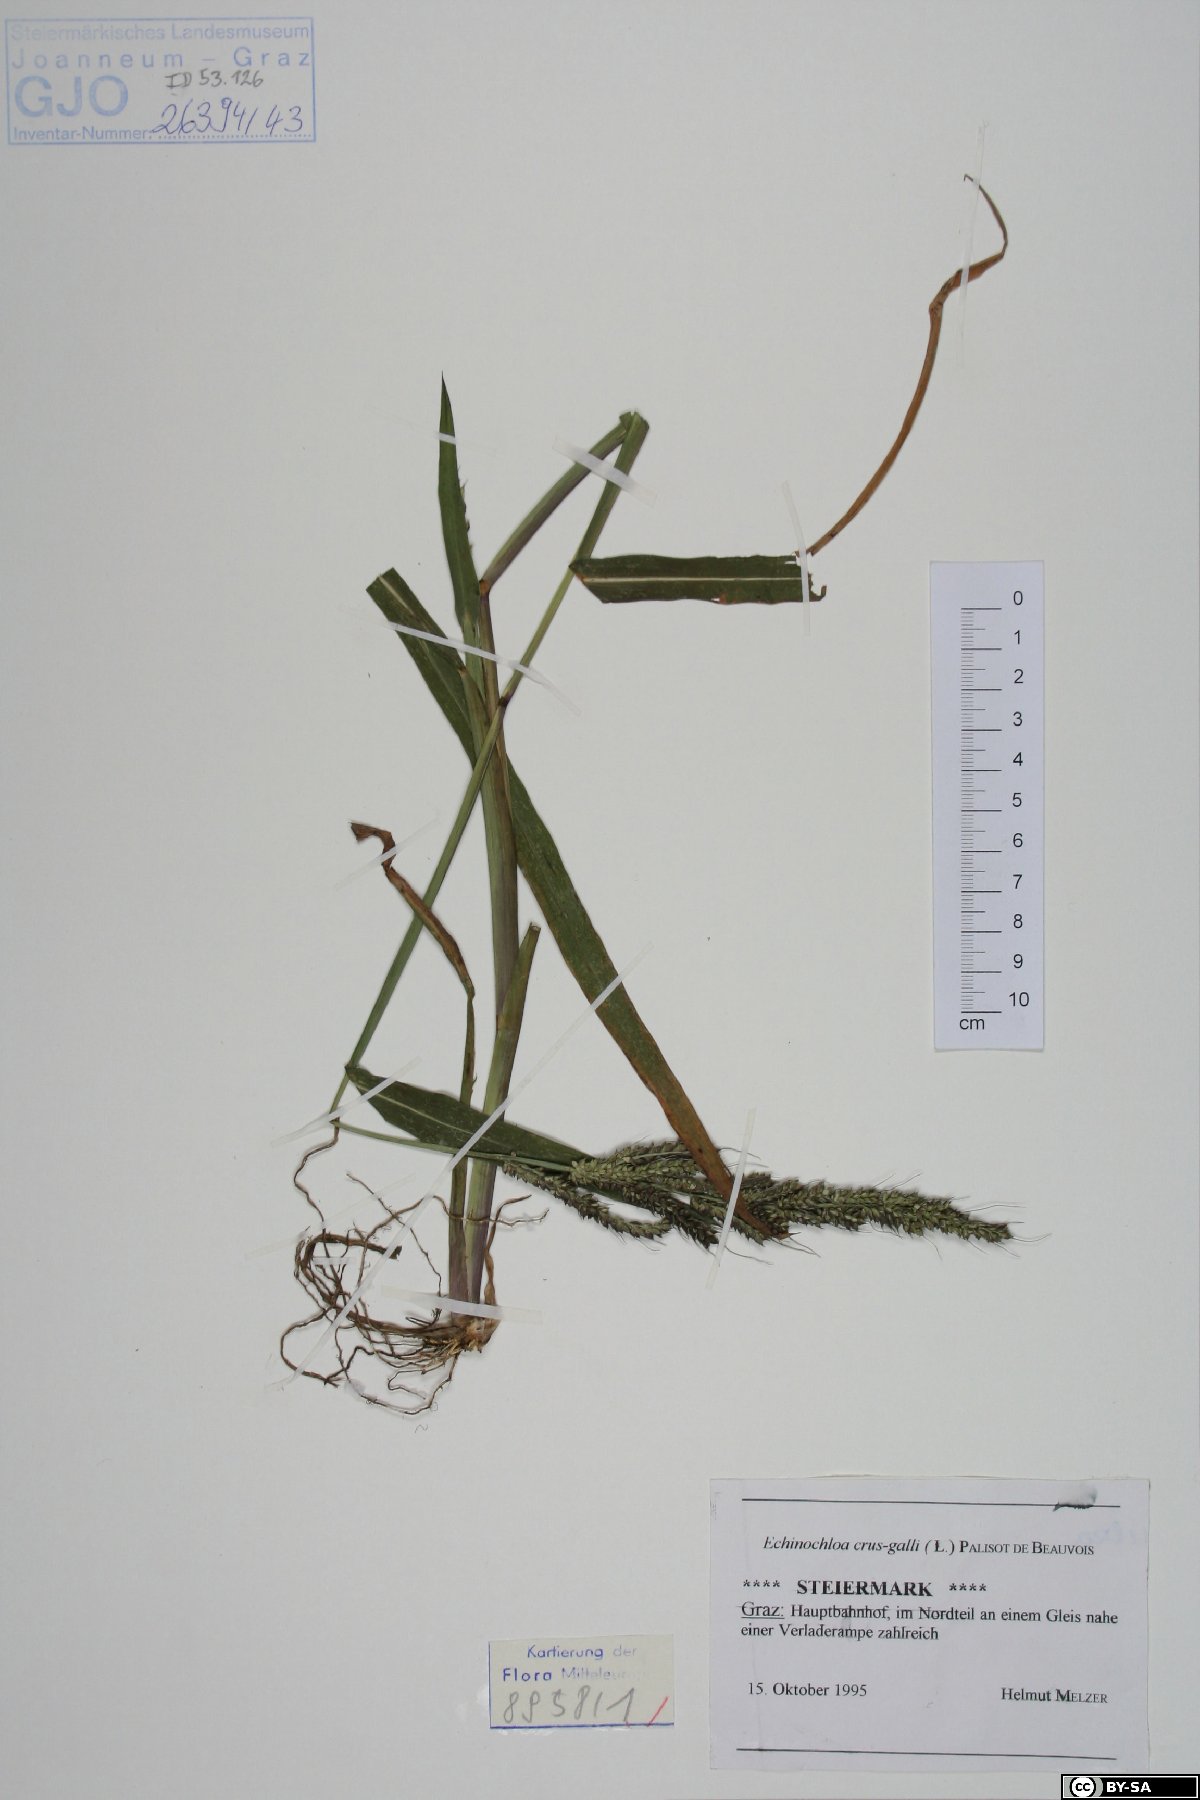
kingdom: Plantae
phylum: Tracheophyta
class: Liliopsida
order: Poales
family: Poaceae
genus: Echinochloa
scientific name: Echinochloa crus-galli
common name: Cockspur
